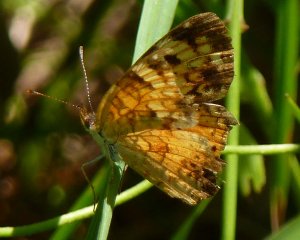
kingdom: Animalia
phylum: Arthropoda
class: Insecta
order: Lepidoptera
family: Nymphalidae
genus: Phyciodes
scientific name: Phyciodes tharos
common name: Northern Crescent
